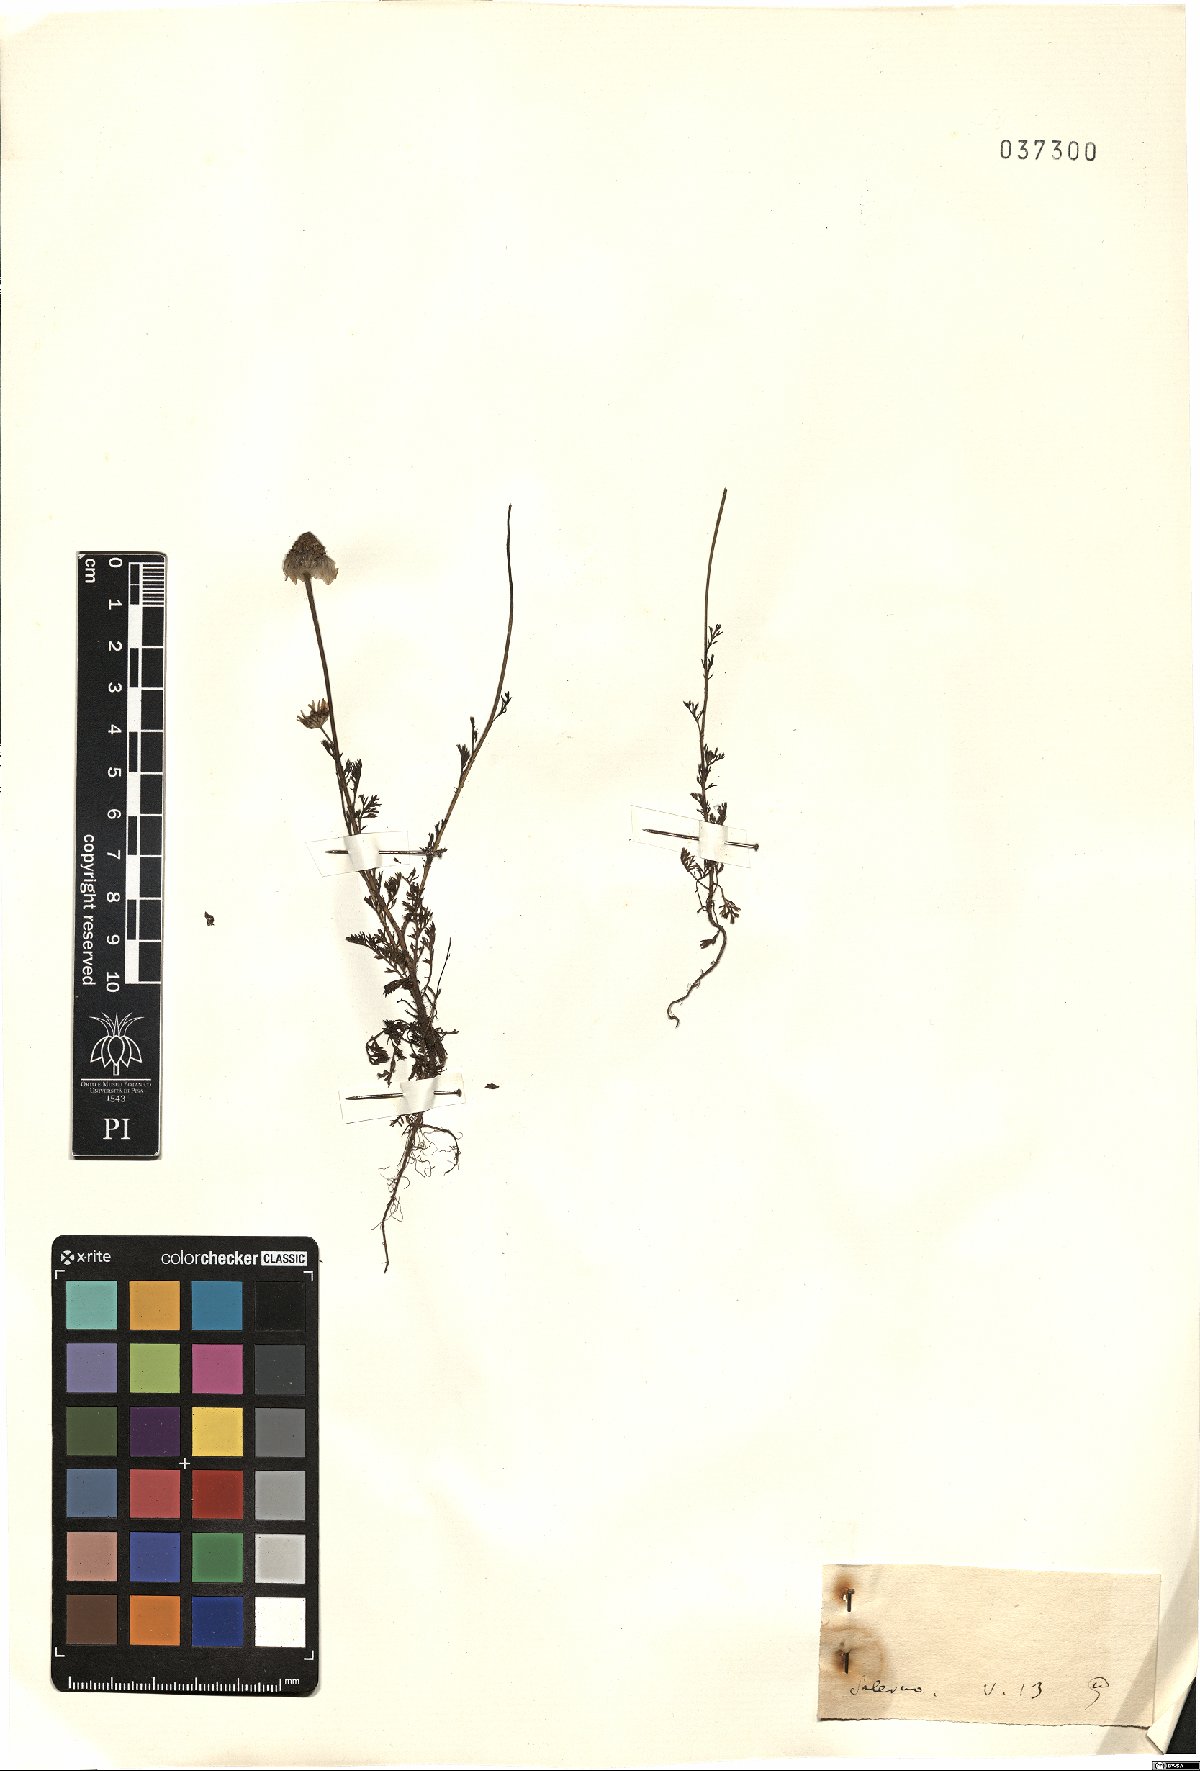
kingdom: Plantae
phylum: Tracheophyta
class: Magnoliopsida
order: Asterales
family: Asteraceae
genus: Anthemis
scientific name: Anthemis
